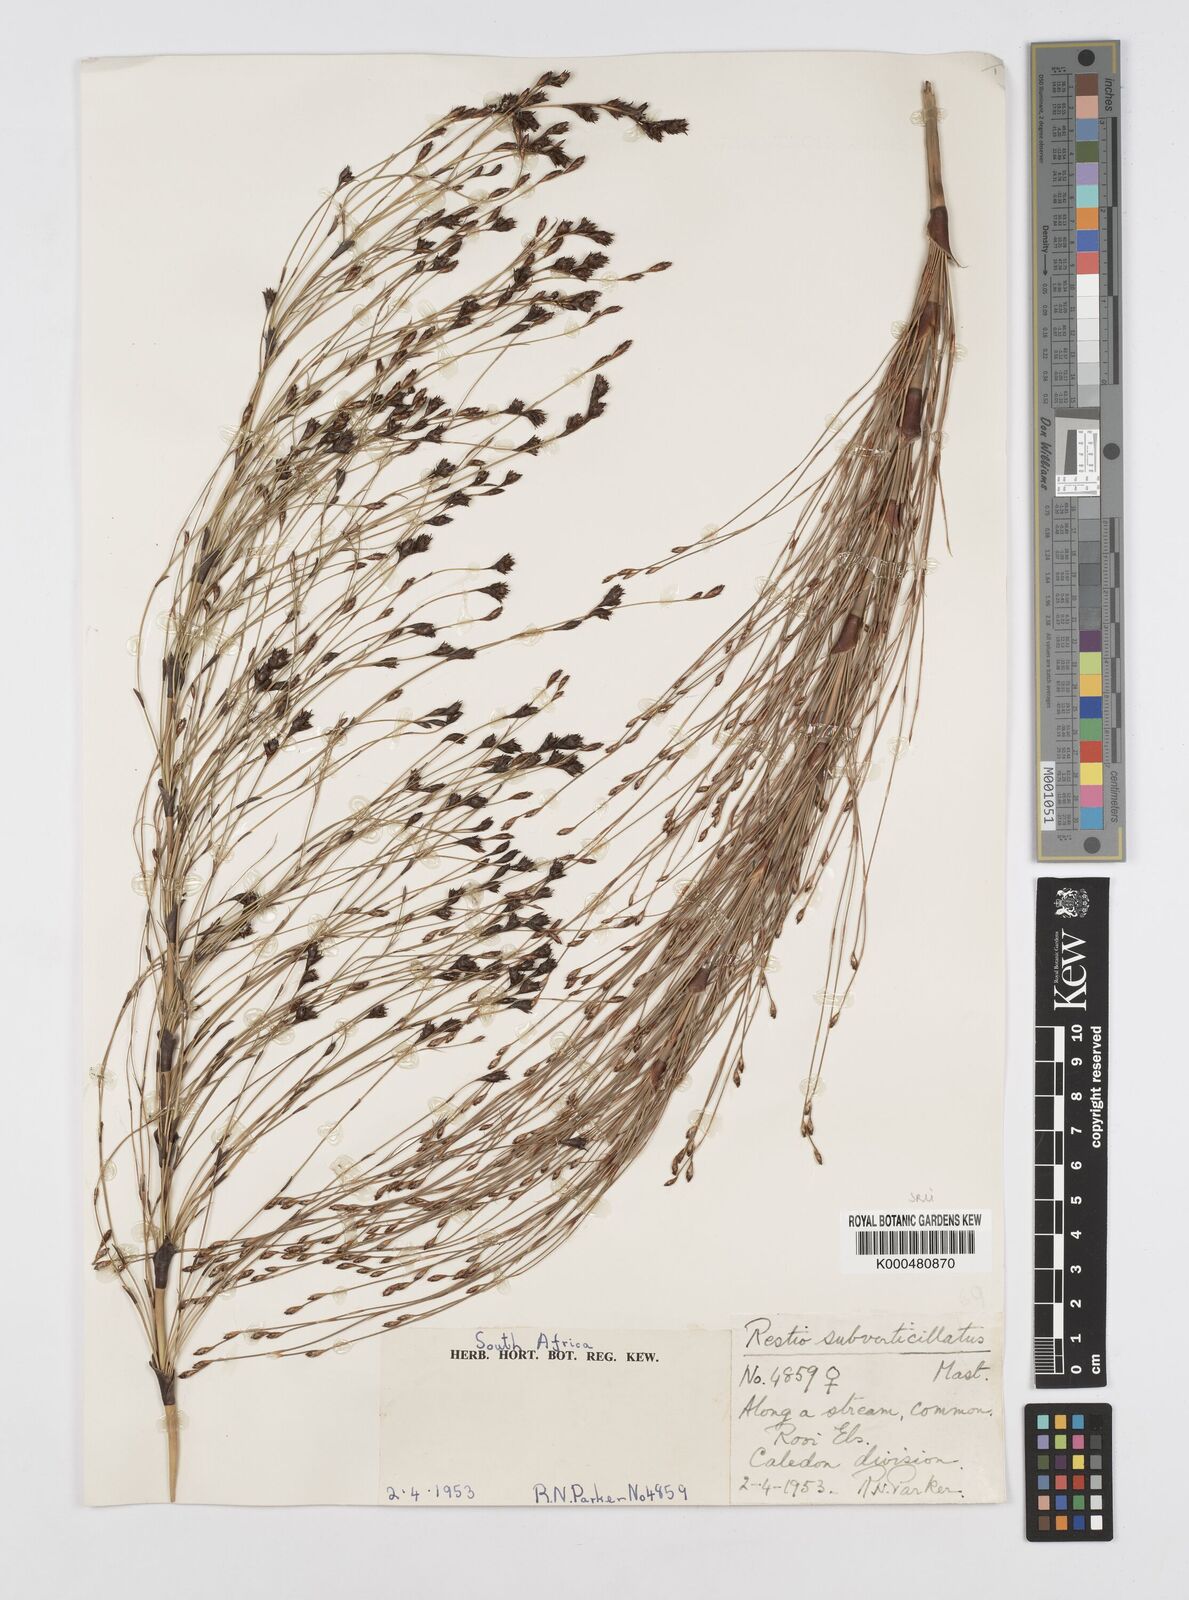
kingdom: Plantae
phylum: Tracheophyta
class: Liliopsida
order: Poales
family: Restionaceae
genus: Restio
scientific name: Restio subverticillatus
